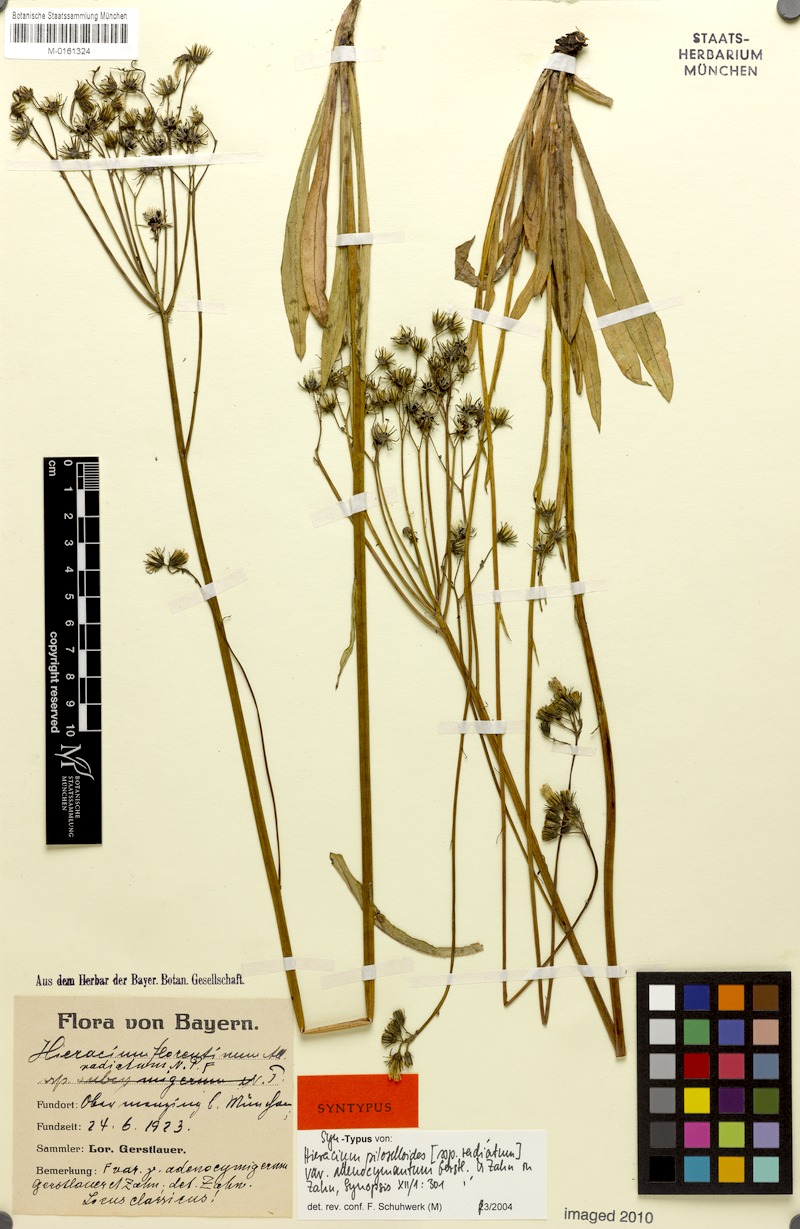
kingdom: Plantae
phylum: Tracheophyta
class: Magnoliopsida
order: Asterales
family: Asteraceae
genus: Pilosella
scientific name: Pilosella piloselloides
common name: Glaucous king-devil
